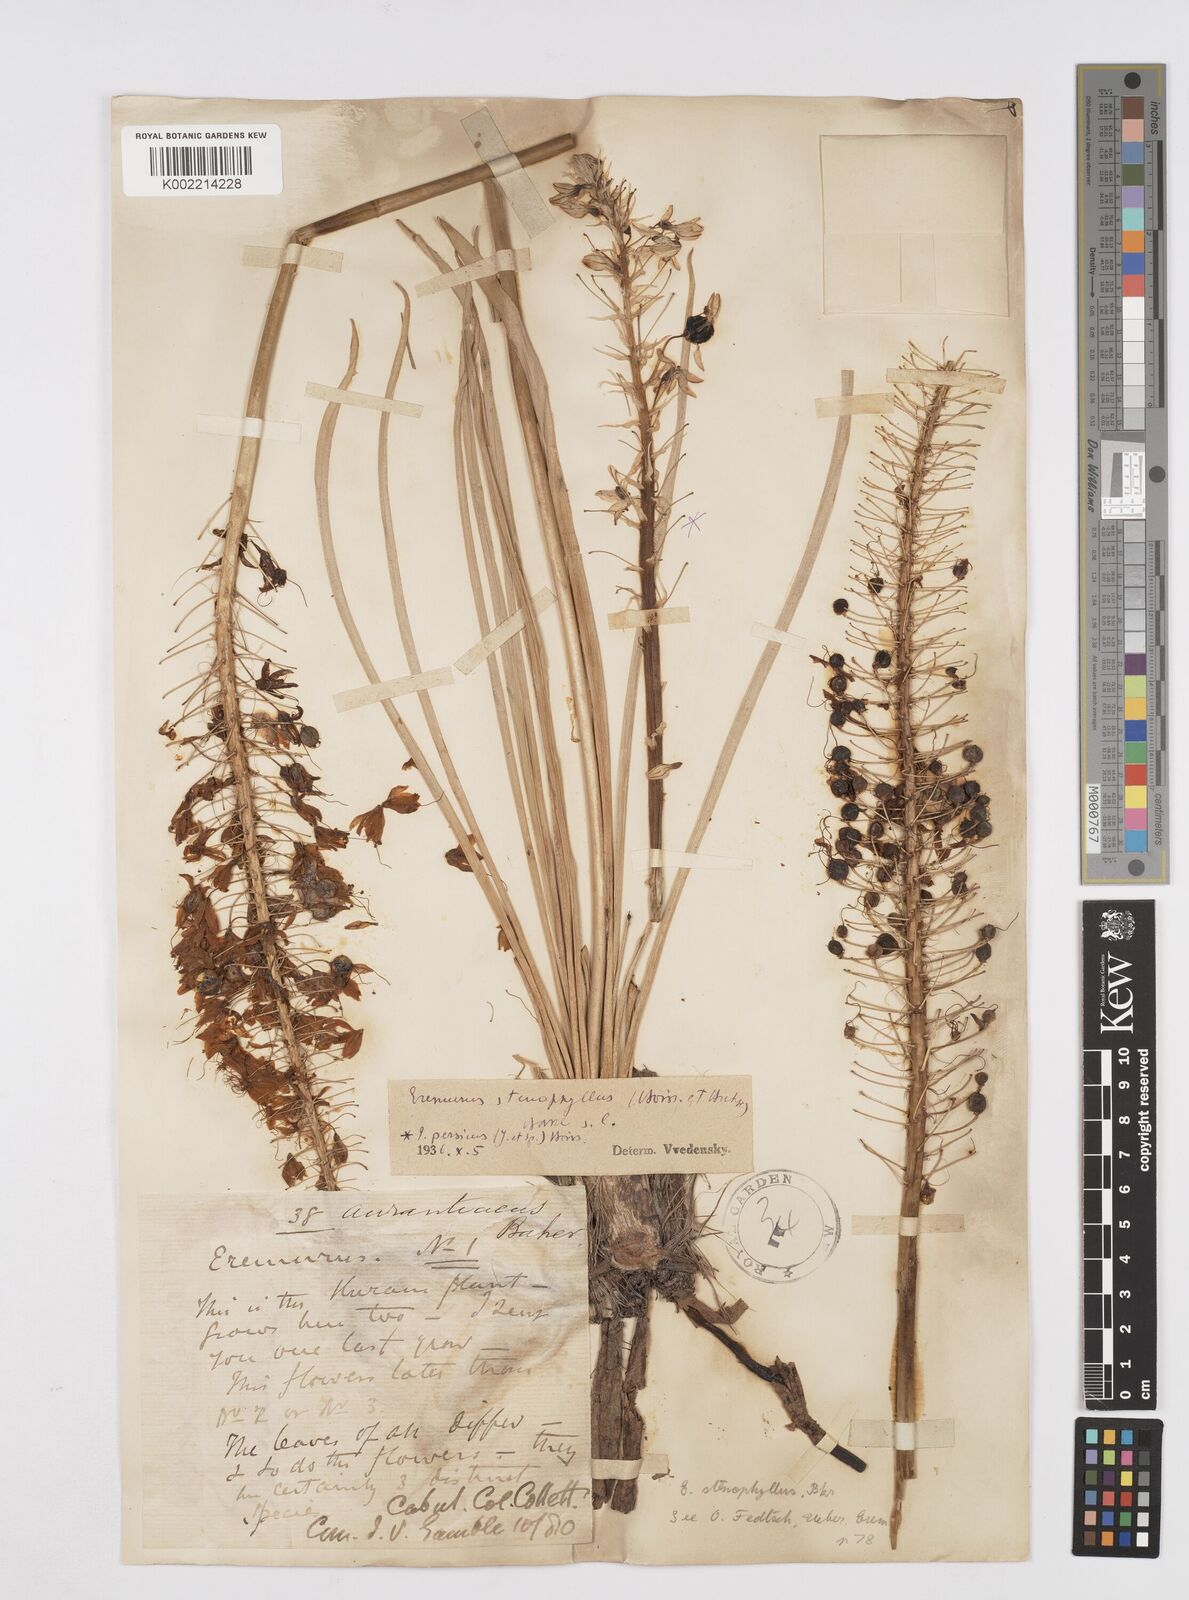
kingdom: Plantae
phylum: Tracheophyta
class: Liliopsida
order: Asparagales
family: Asphodelaceae
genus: Eremurus
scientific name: Eremurus stenophyllus
